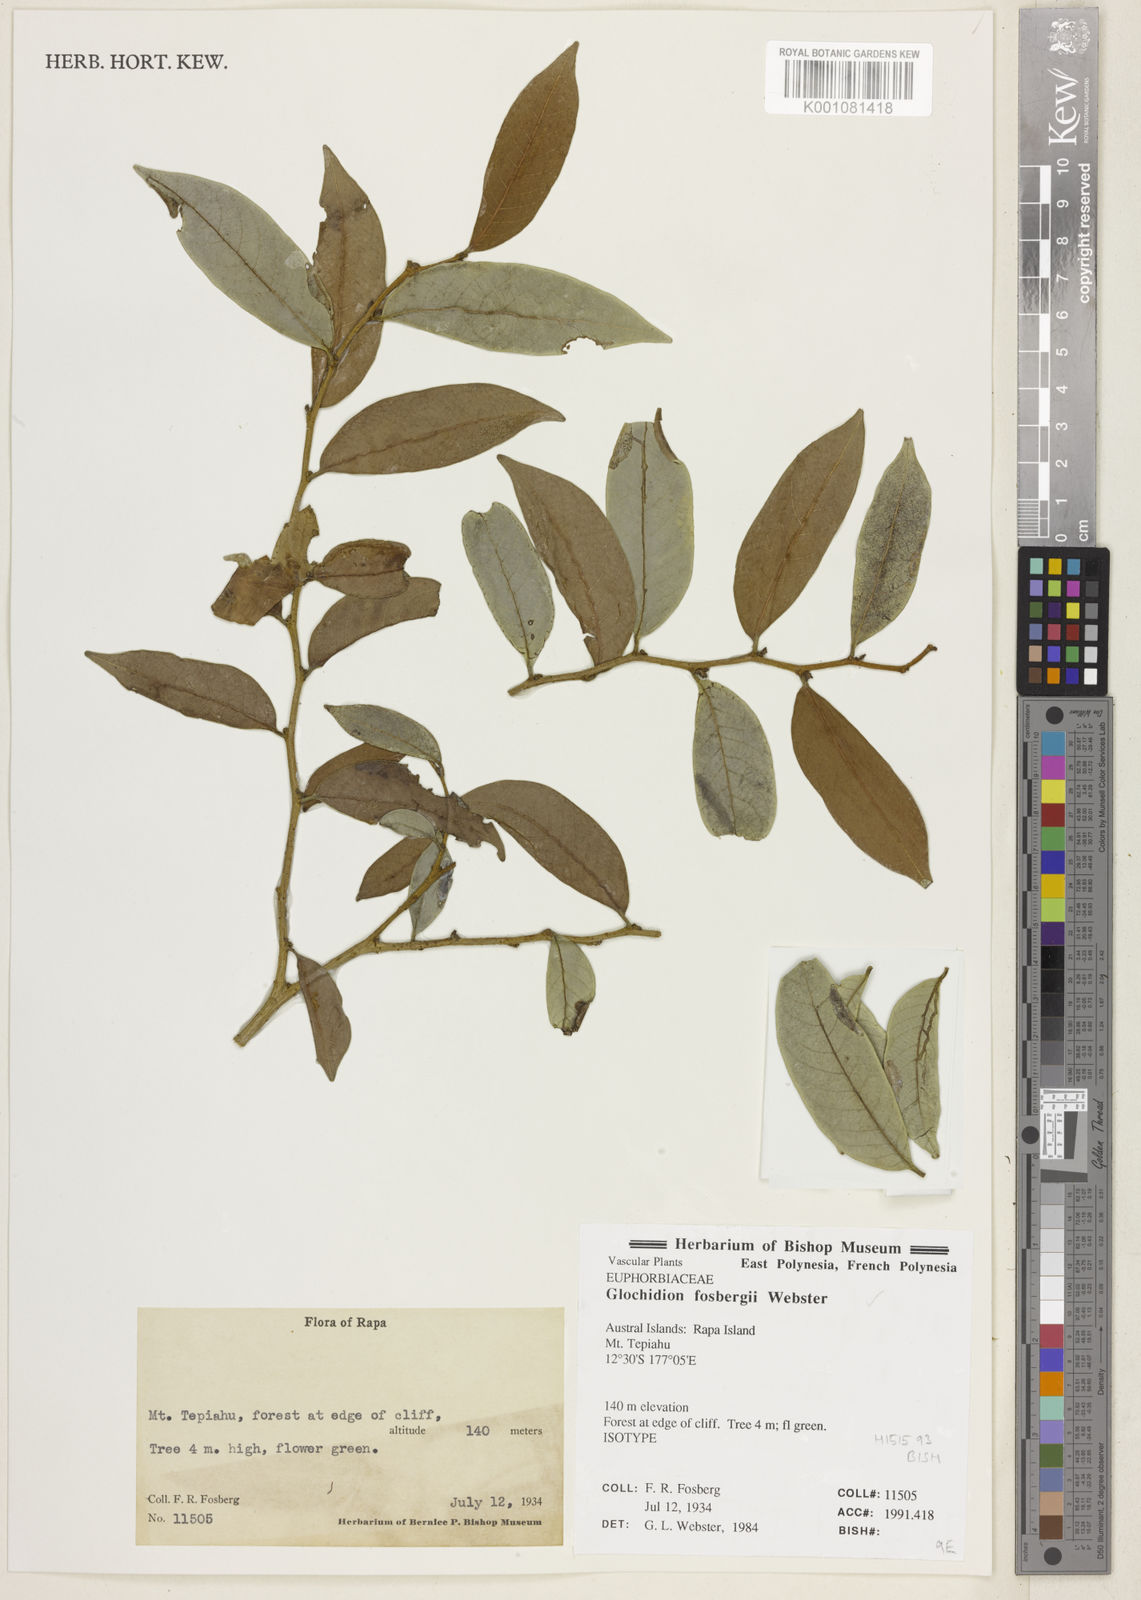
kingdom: Plantae
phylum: Tracheophyta
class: Magnoliopsida
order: Malpighiales
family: Phyllanthaceae
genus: Glochidion
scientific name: Glochidion
